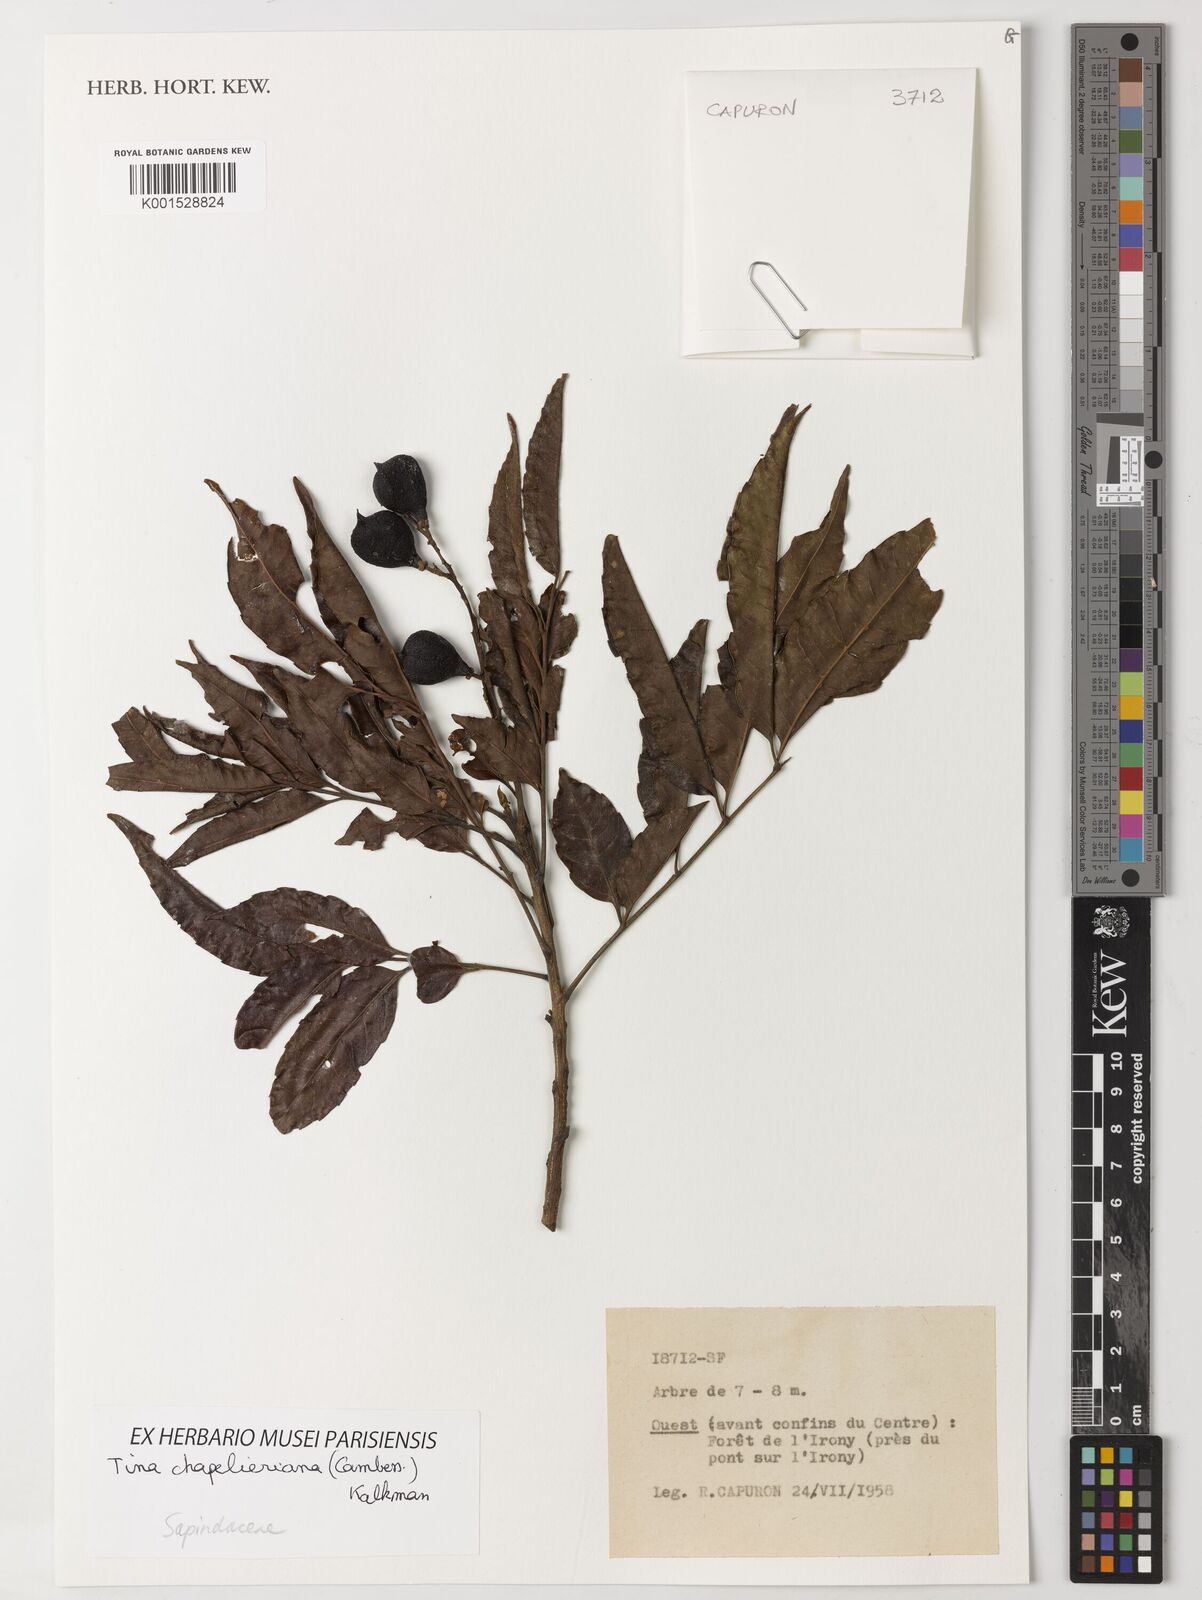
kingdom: Plantae
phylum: Tracheophyta
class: Magnoliopsida
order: Sapindales
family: Sapindaceae
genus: Tina
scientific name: Tina chapelieriana
